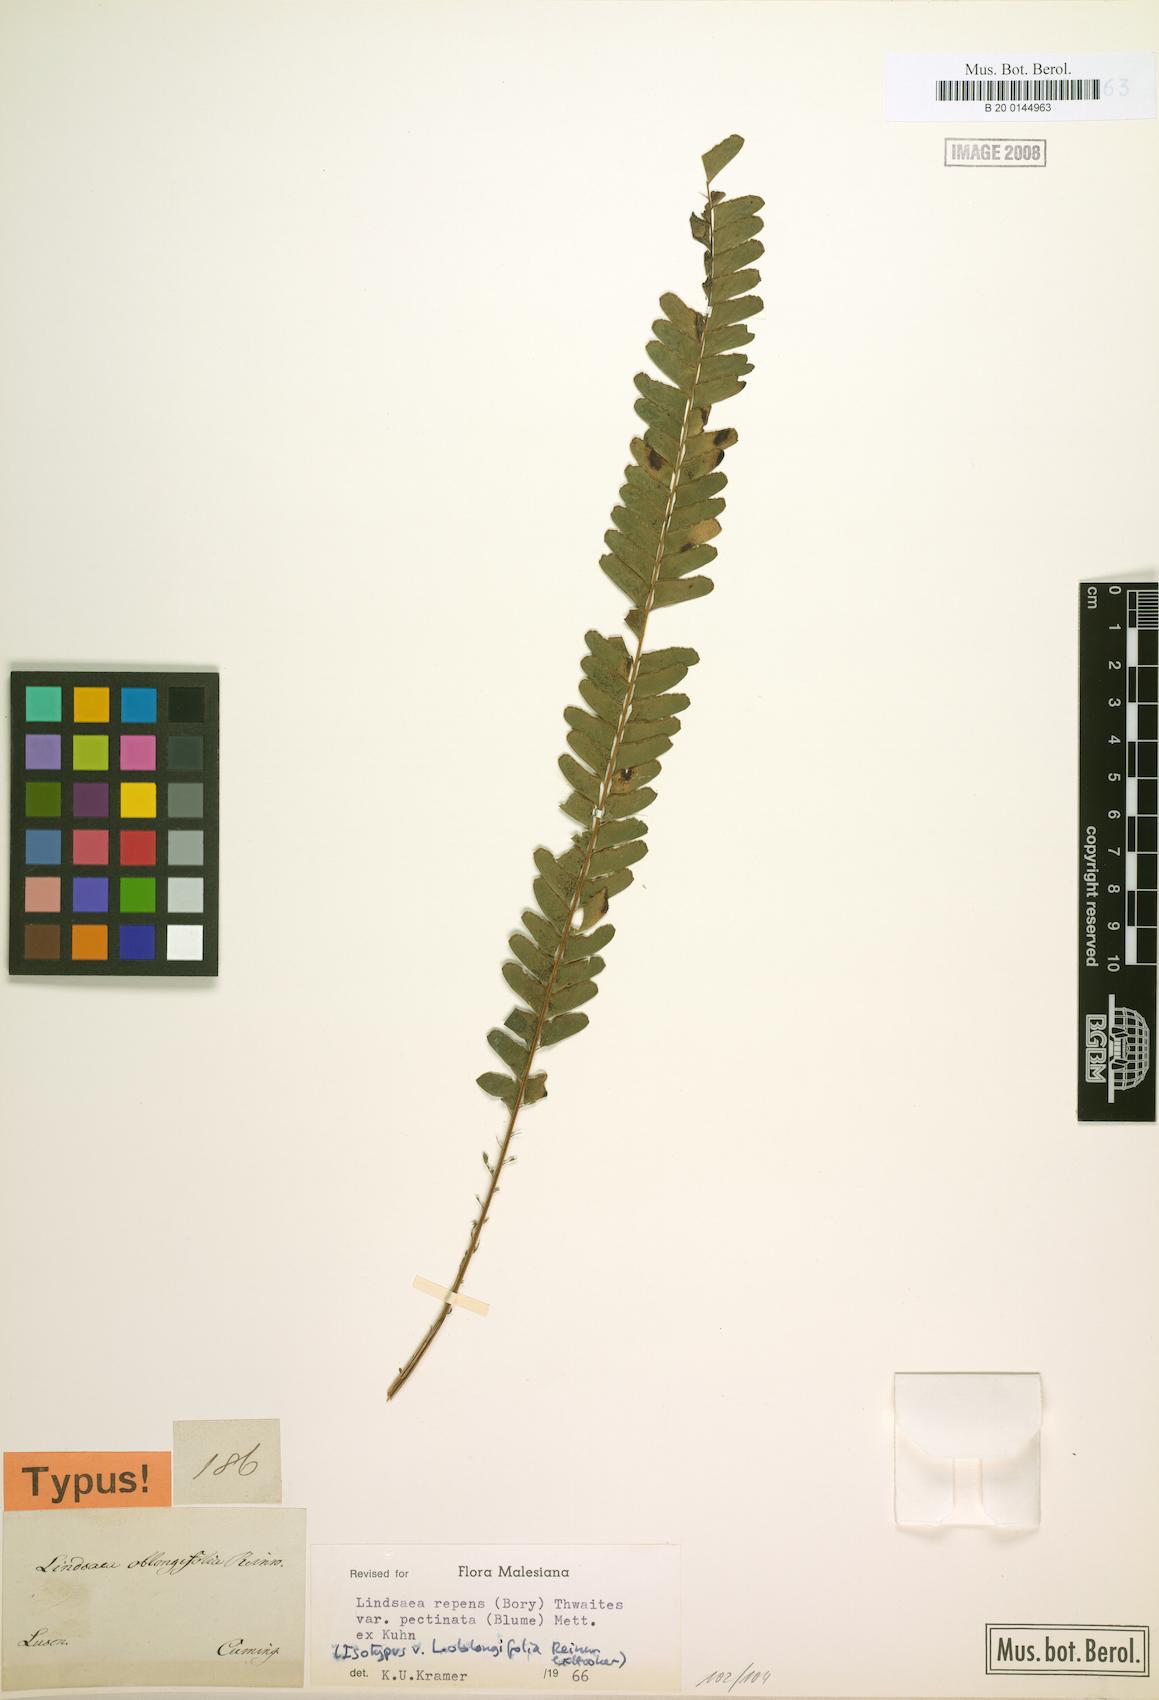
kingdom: Plantae
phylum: Tracheophyta
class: Polypodiopsida
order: Polypodiales
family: Lindsaeaceae
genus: Lindsaea
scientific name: Lindsaea pectinata
